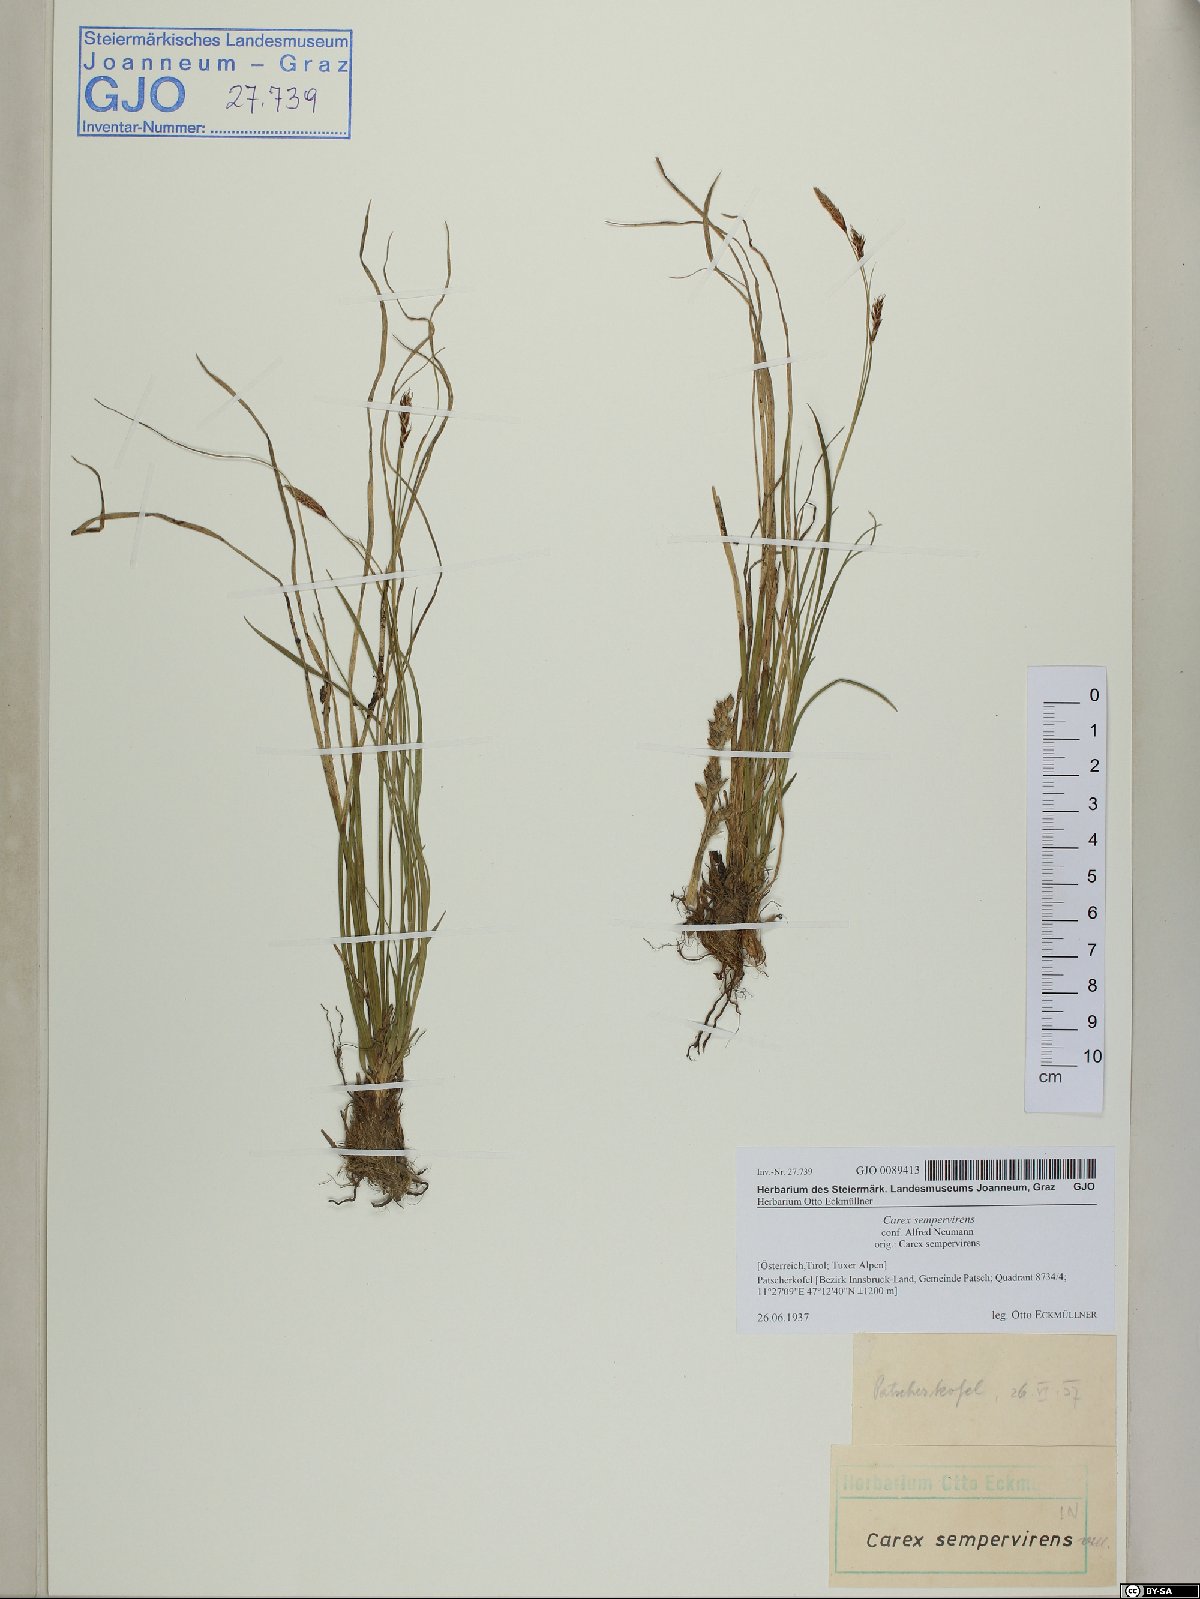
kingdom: Plantae
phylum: Tracheophyta
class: Liliopsida
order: Poales
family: Cyperaceae
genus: Carex
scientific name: Carex sempervirens
